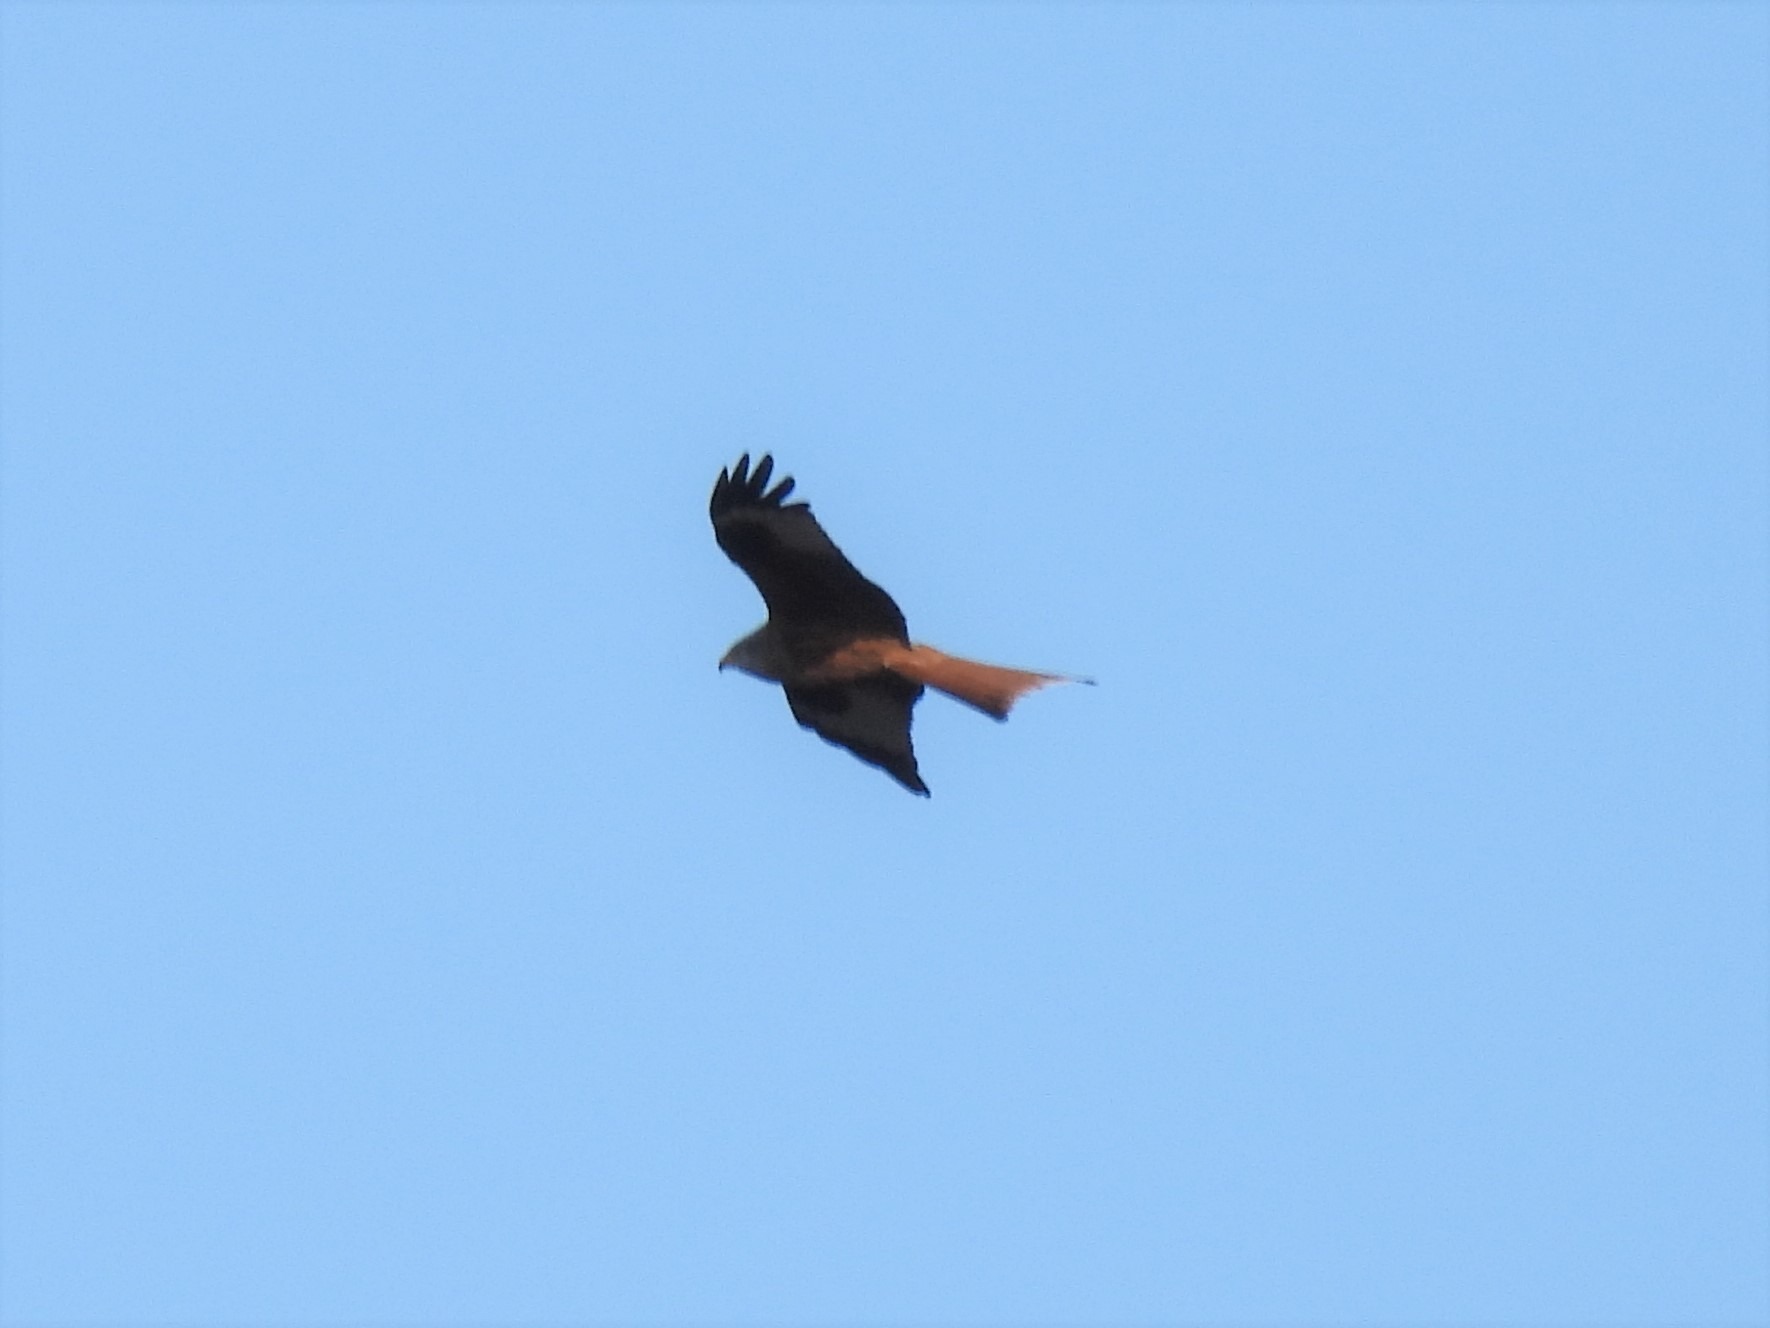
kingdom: Animalia
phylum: Chordata
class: Aves
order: Accipitriformes
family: Accipitridae
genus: Milvus
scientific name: Milvus milvus
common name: Rød glente
